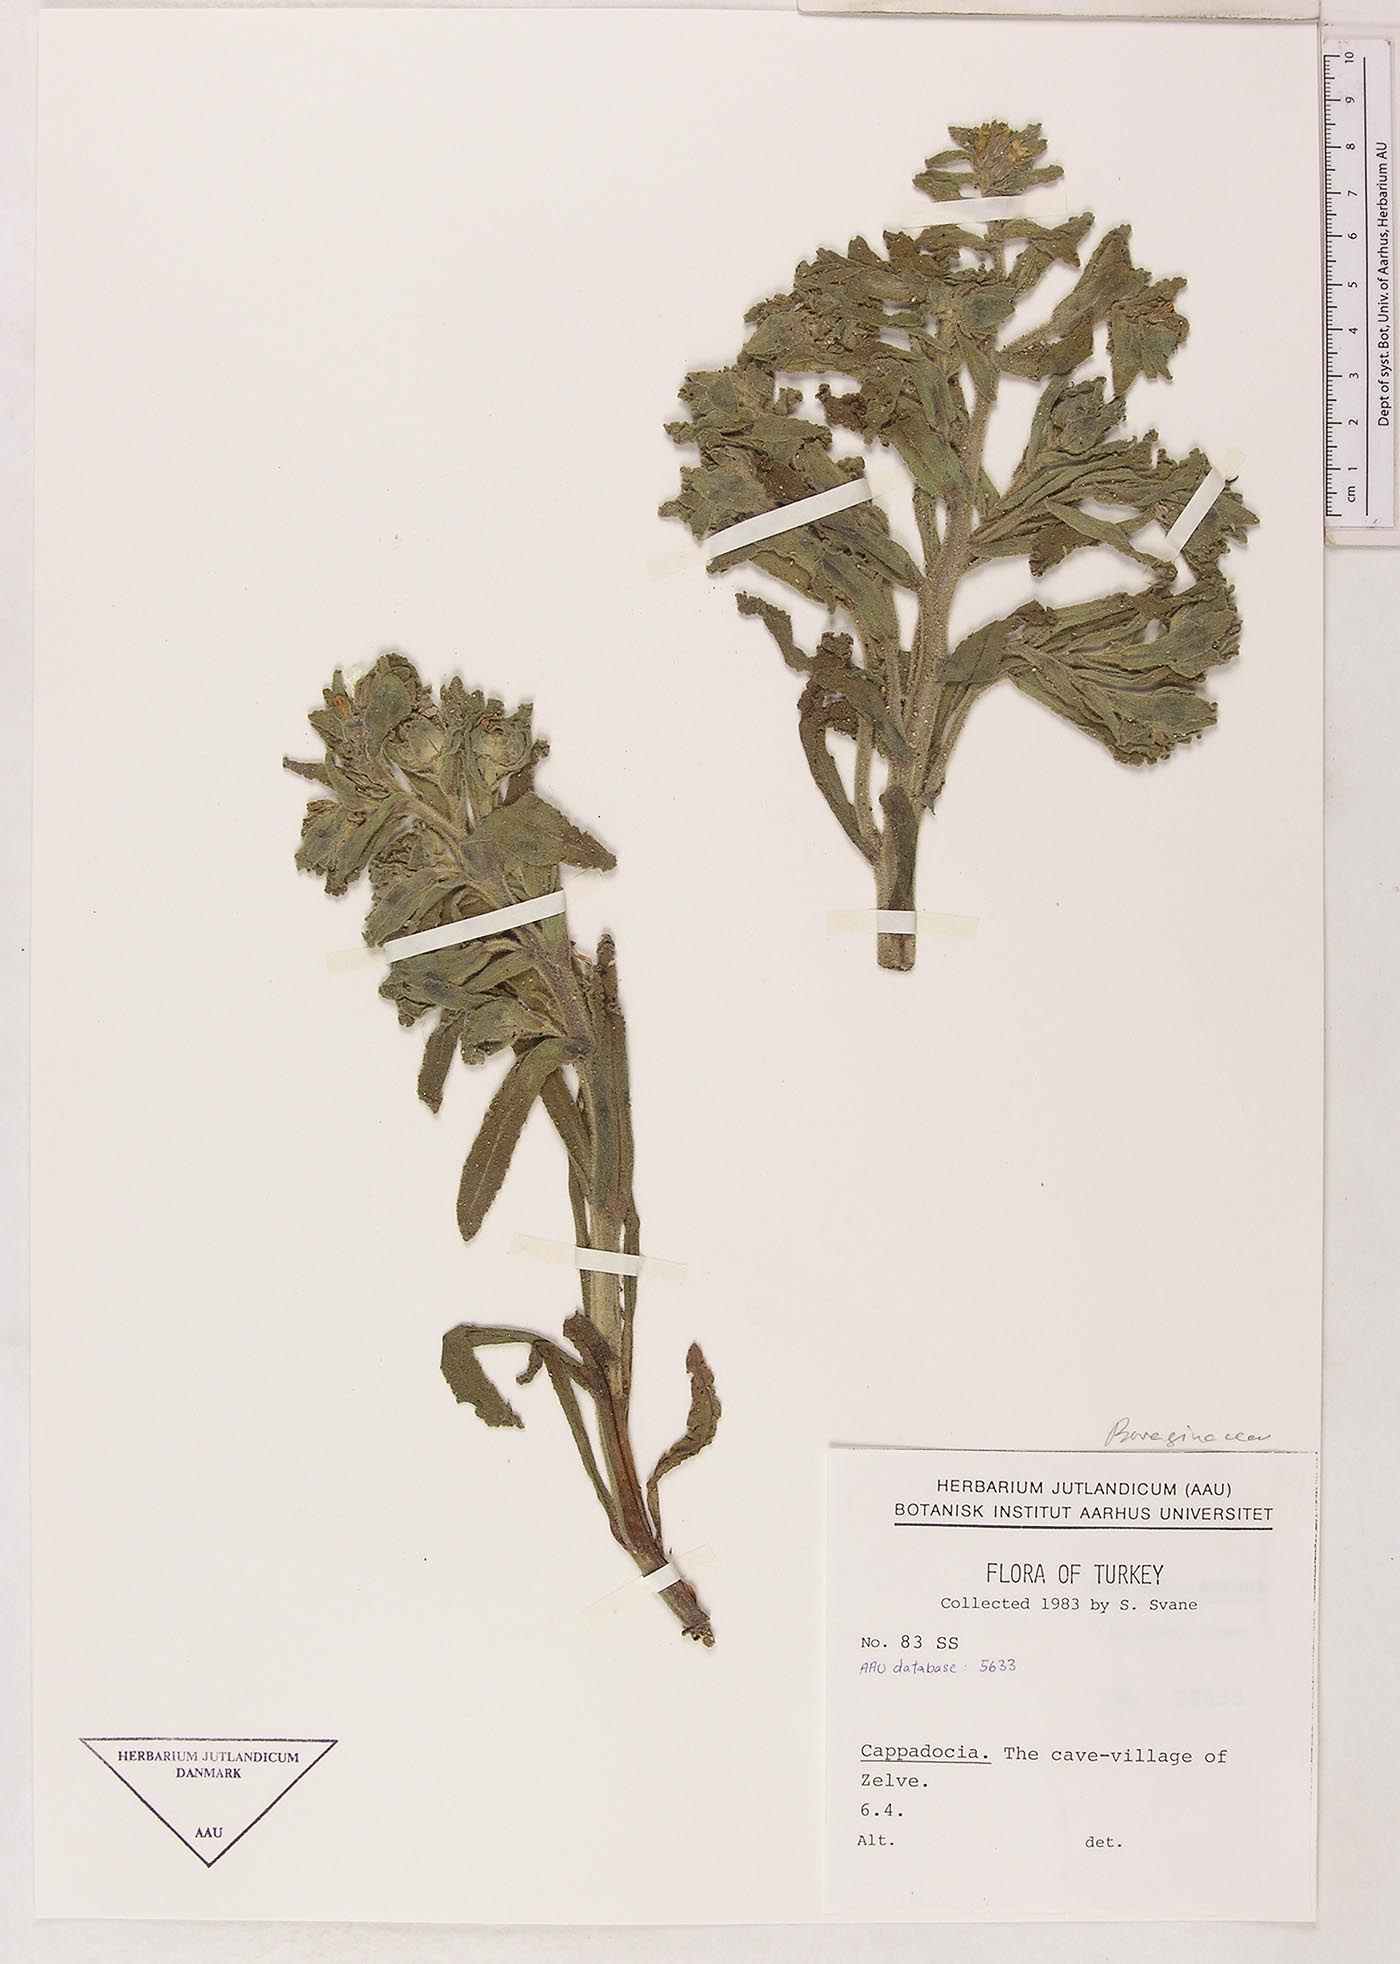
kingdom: Plantae
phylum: Tracheophyta
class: Magnoliopsida
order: Boraginales
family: Boraginaceae
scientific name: Boraginaceae
